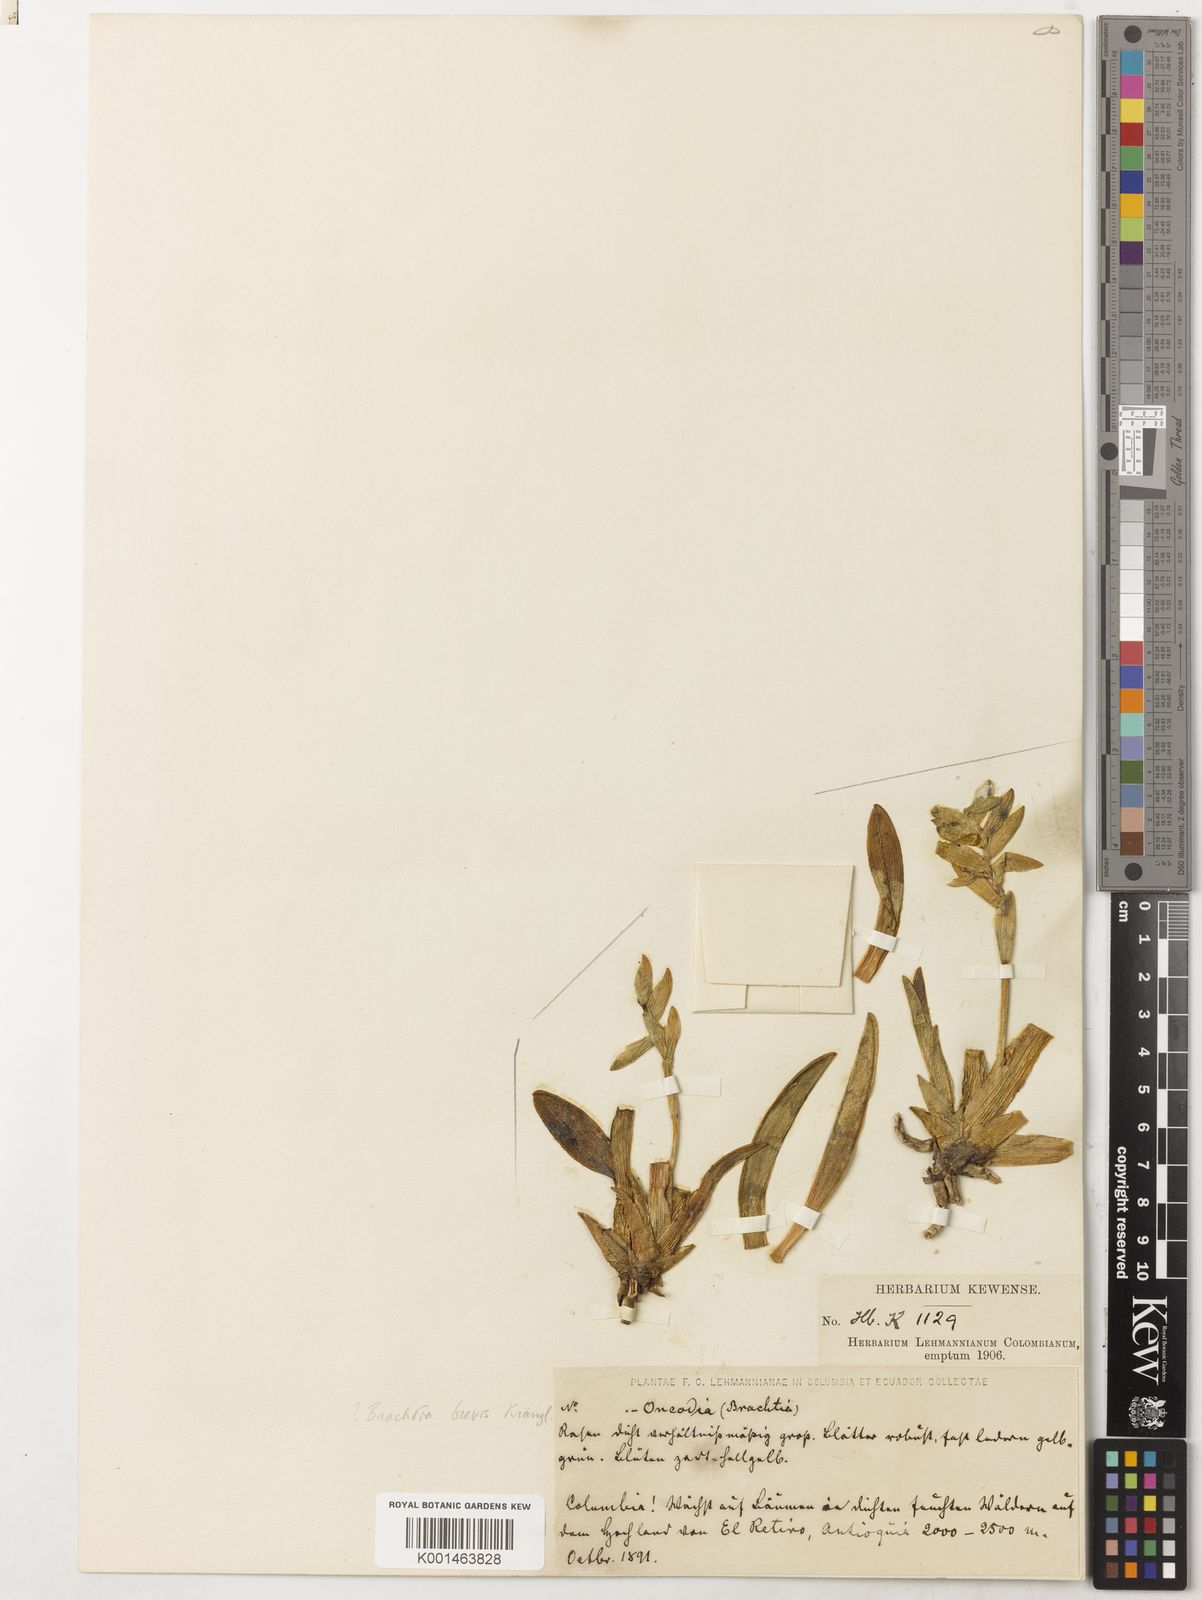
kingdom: Plantae
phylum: Tracheophyta
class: Liliopsida
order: Asparagales
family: Orchidaceae
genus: Brassia
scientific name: Brassia brevis
